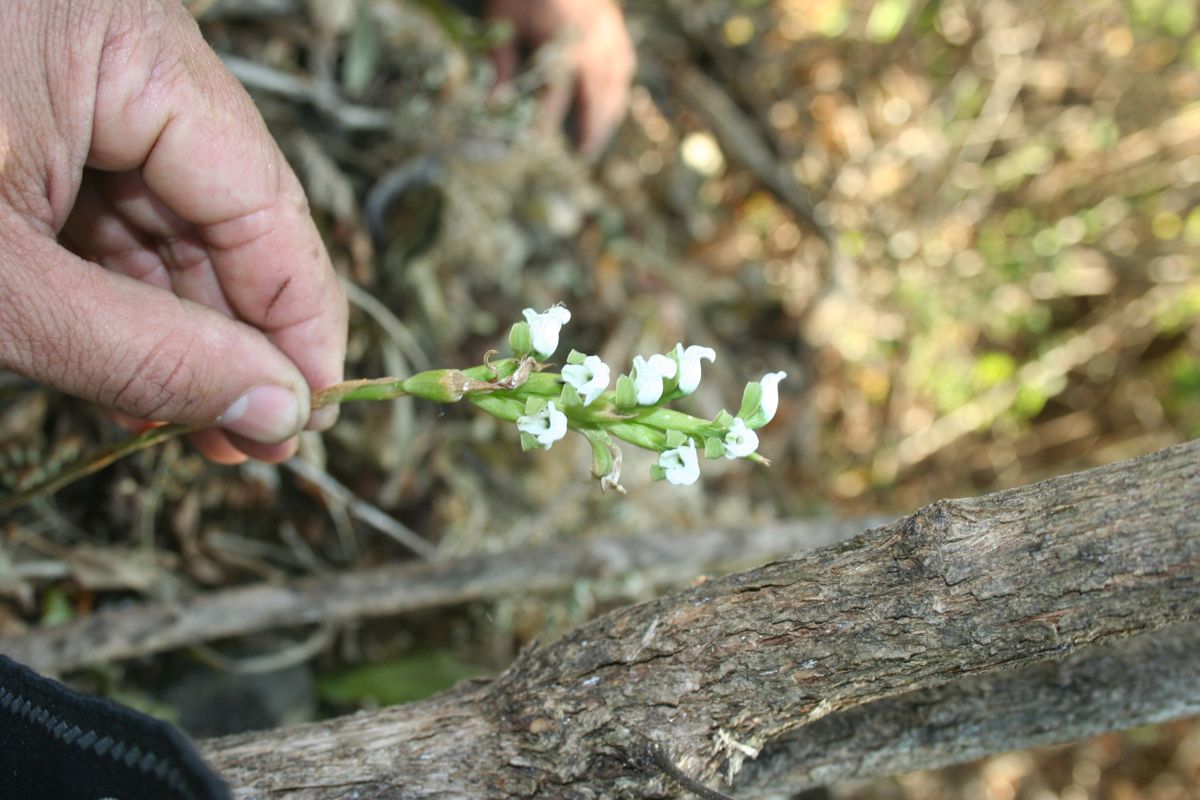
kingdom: Plantae
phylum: Tracheophyta
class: Liliopsida
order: Asparagales
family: Orchidaceae
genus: Aulosepalum
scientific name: Aulosepalum hemichrea
